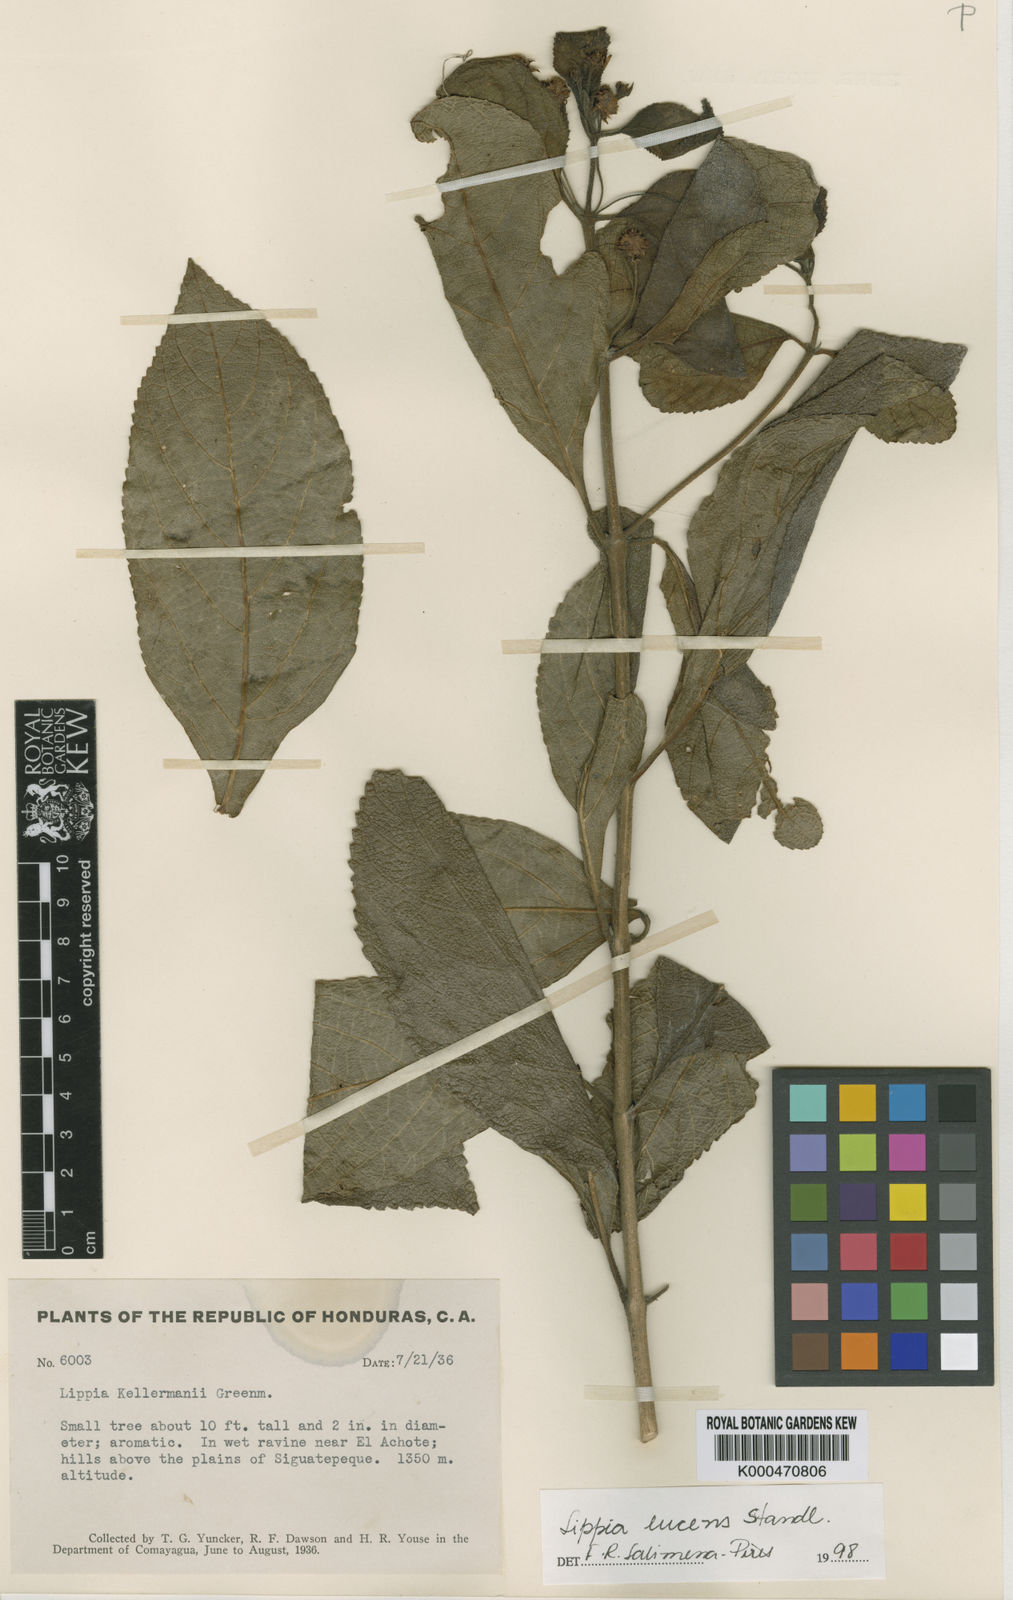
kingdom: Plantae
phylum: Tracheophyta
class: Magnoliopsida
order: Lamiales
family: Verbenaceae
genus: Lippia
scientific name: Lippia cardiostegia
